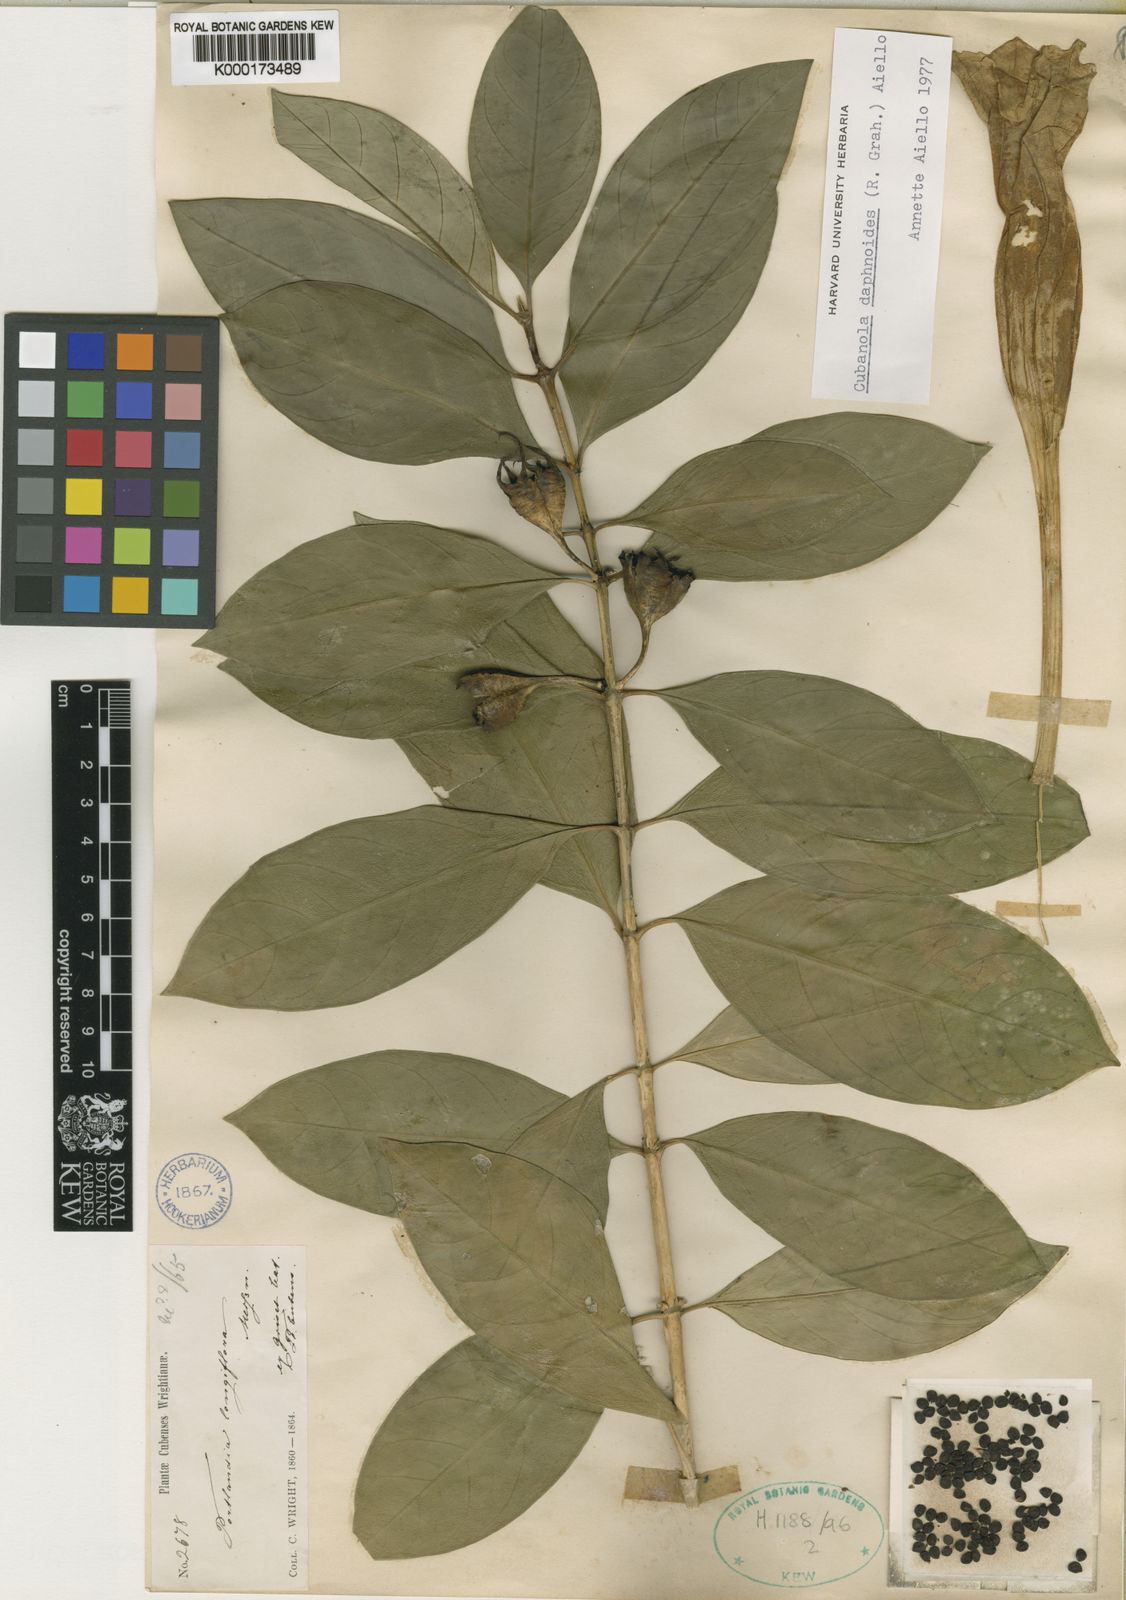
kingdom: Plantae
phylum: Tracheophyta
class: Magnoliopsida
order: Gentianales
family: Rubiaceae
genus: Cubanola
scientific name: Cubanola daphnoides
